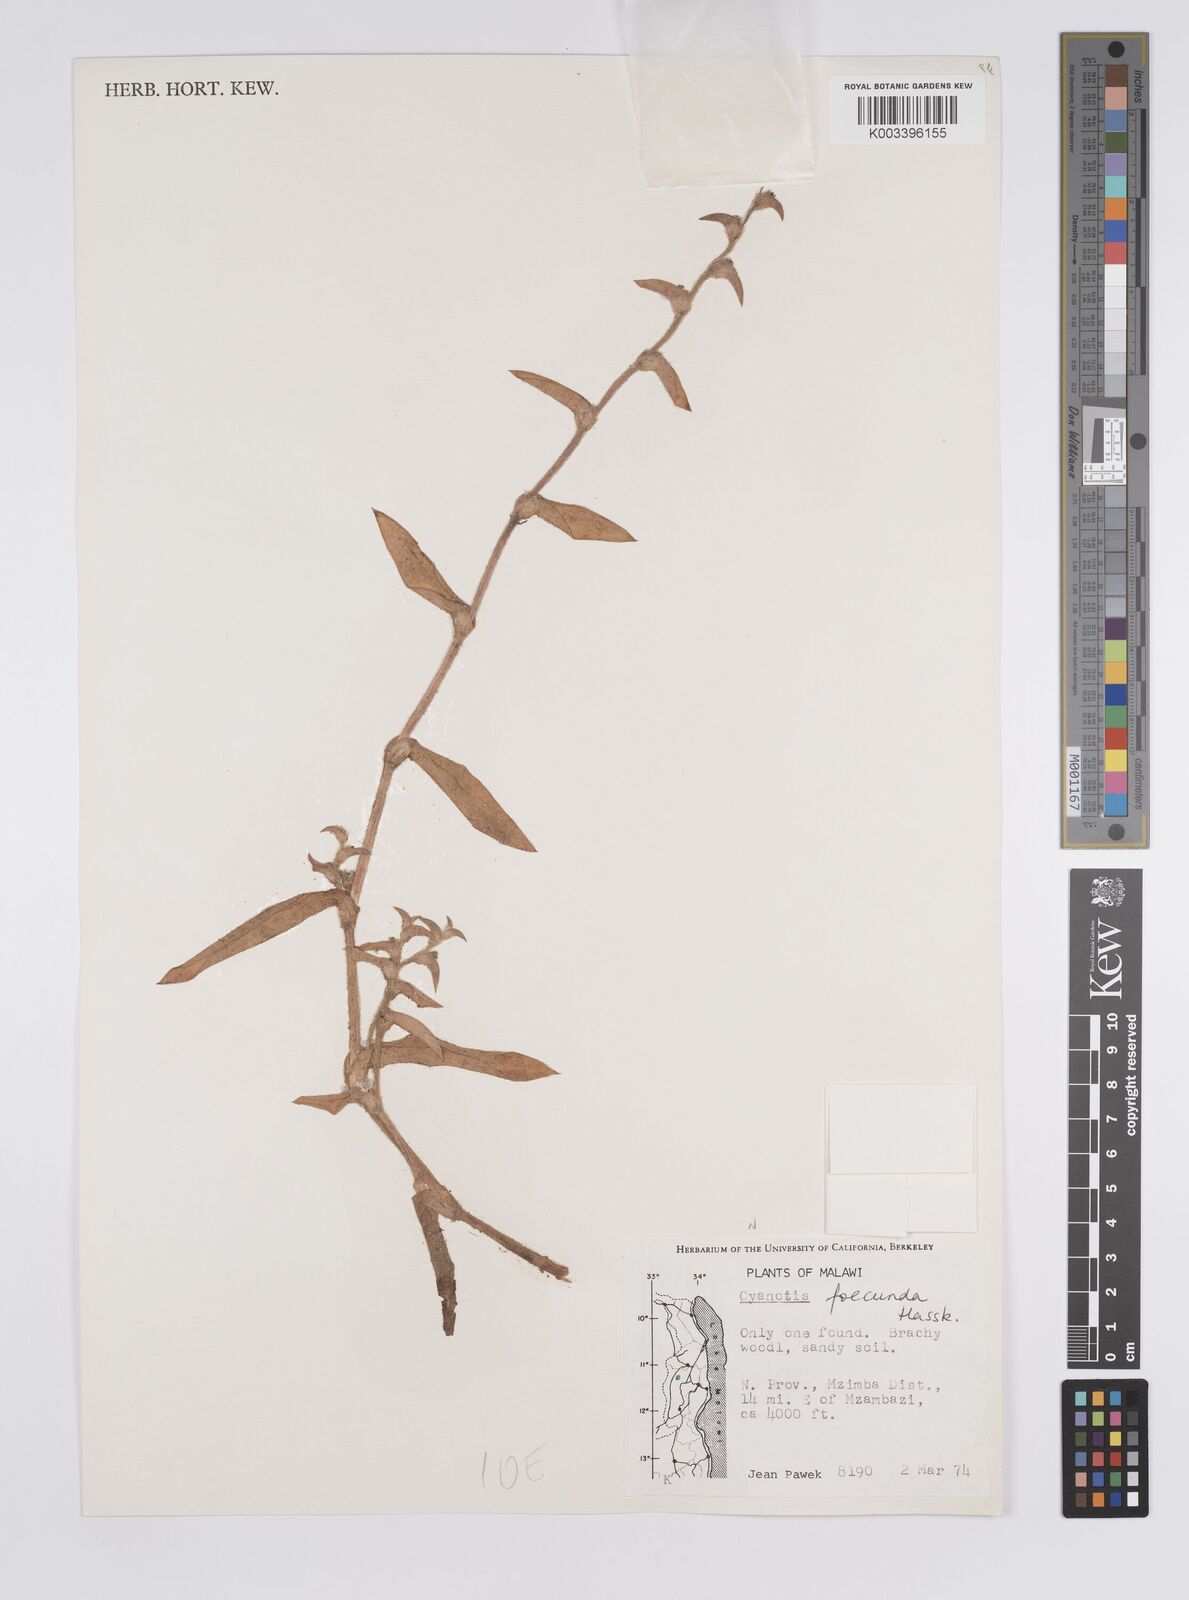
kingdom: Plantae
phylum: Tracheophyta
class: Liliopsida
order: Commelinales
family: Commelinaceae
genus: Cyanotis
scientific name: Cyanotis foecunda
